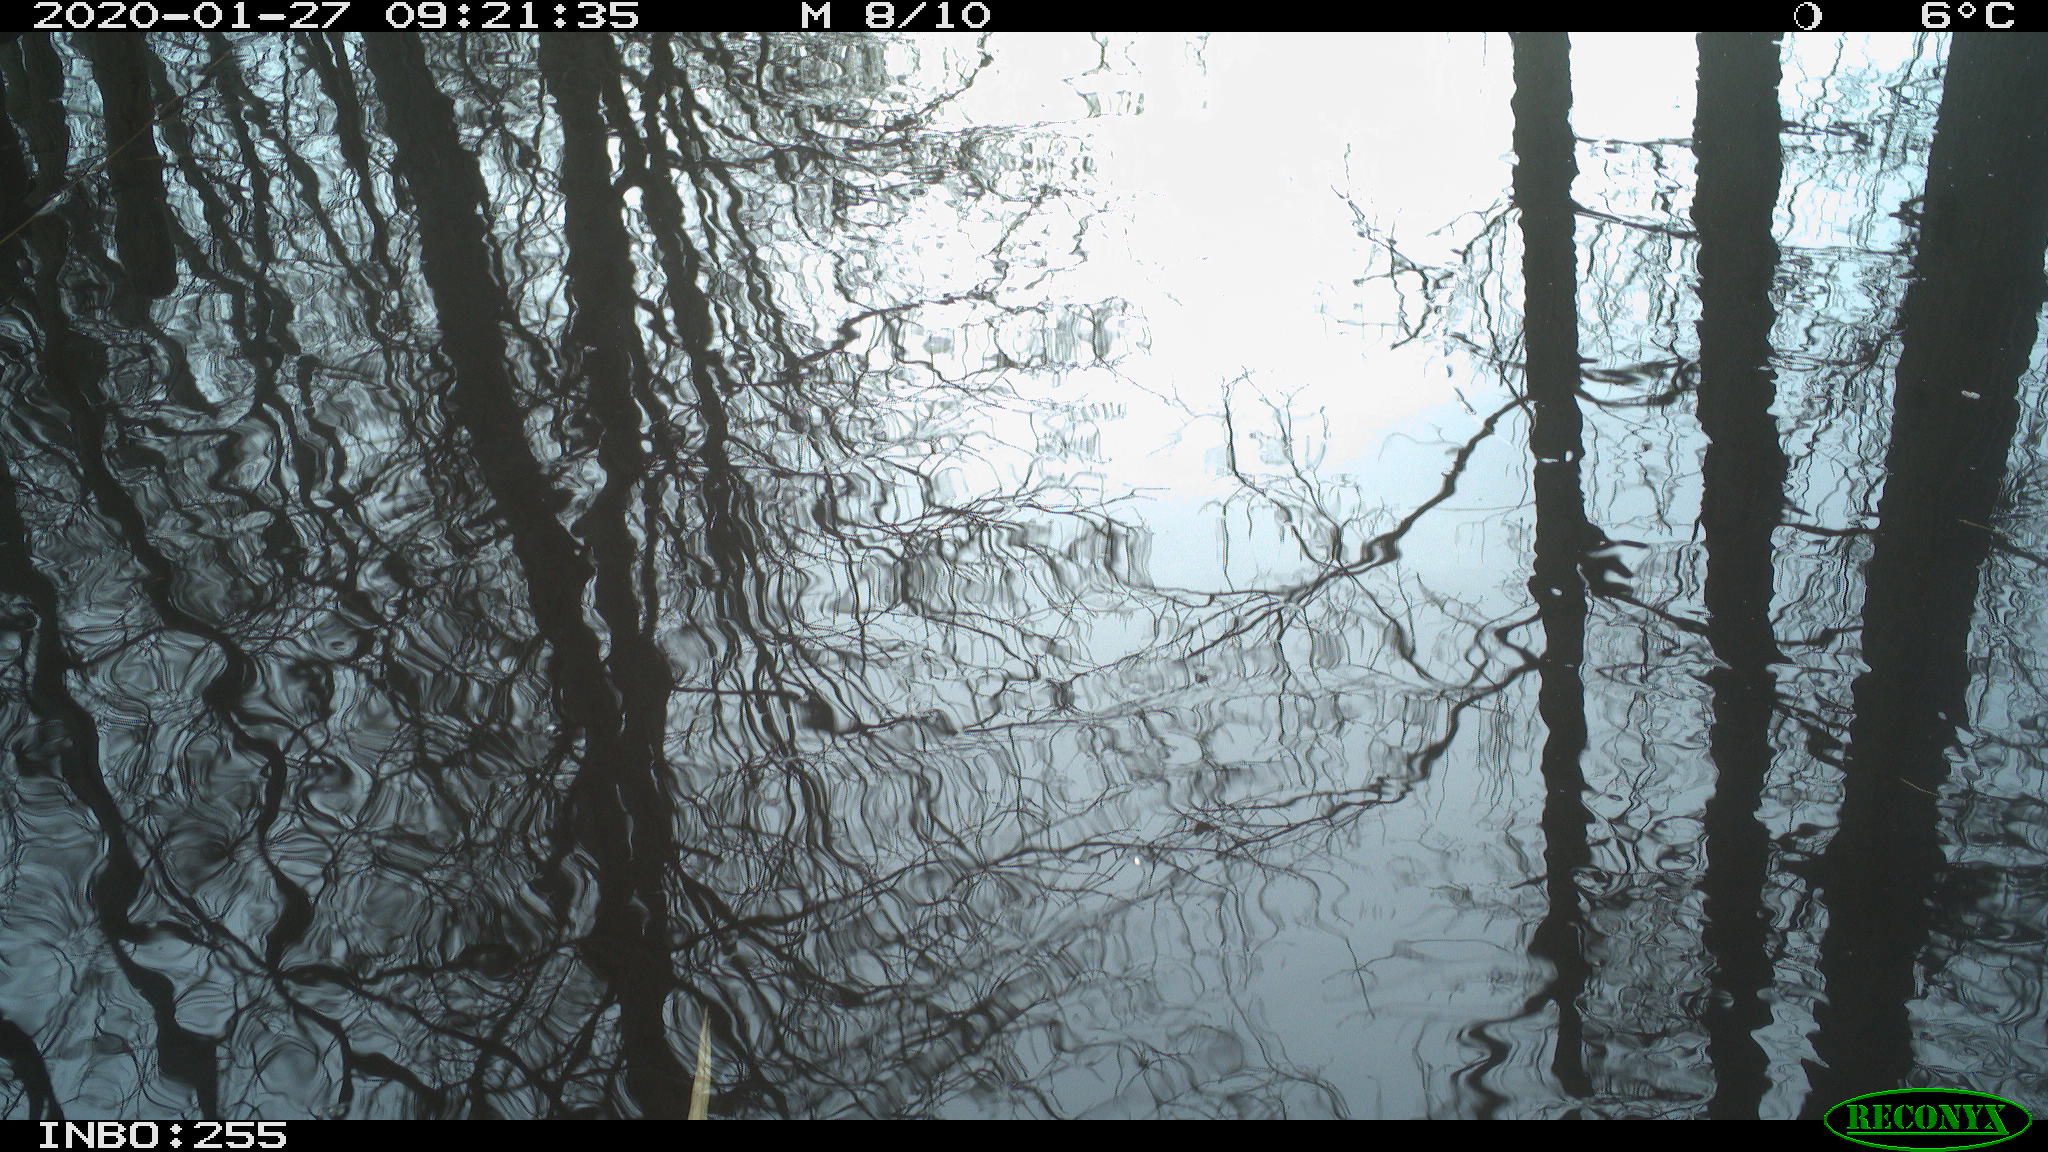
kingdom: Animalia
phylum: Chordata
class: Aves
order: Gruiformes
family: Rallidae
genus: Fulica
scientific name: Fulica atra
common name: Eurasian coot
